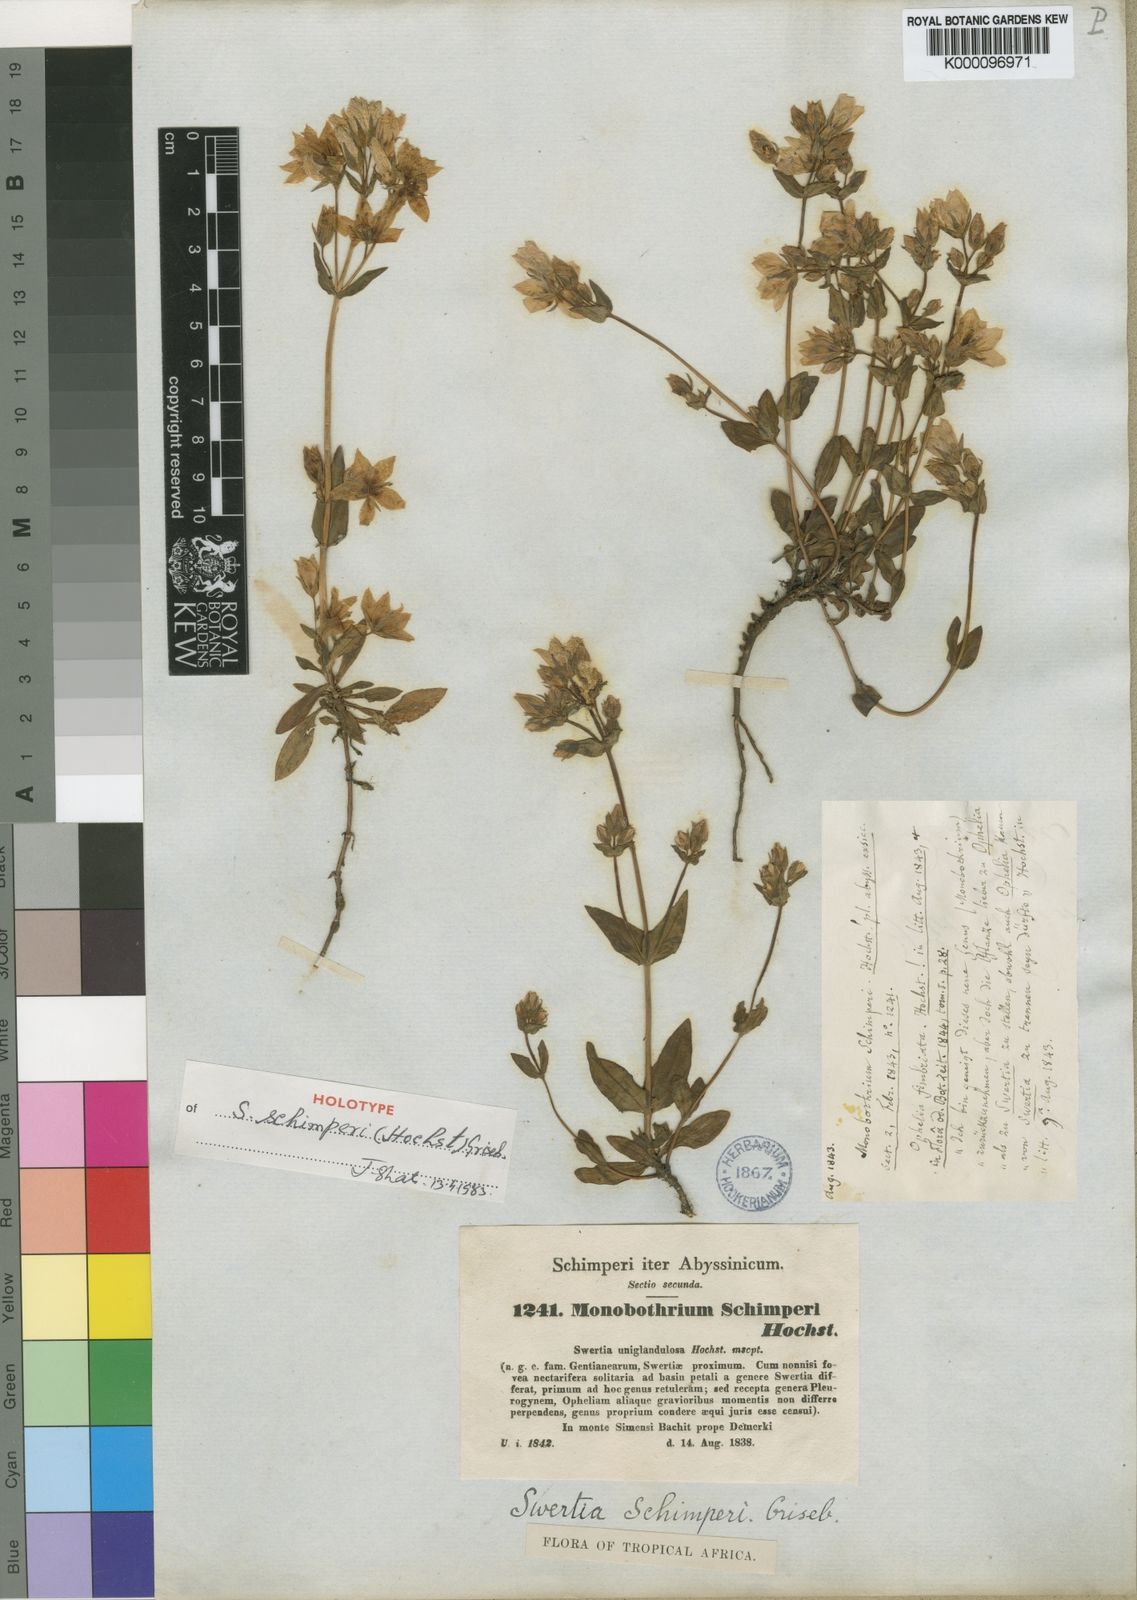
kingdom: Plantae
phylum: Tracheophyta
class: Magnoliopsida
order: Gentianales
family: Gentianaceae
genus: Swertia
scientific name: Swertia schimperi
